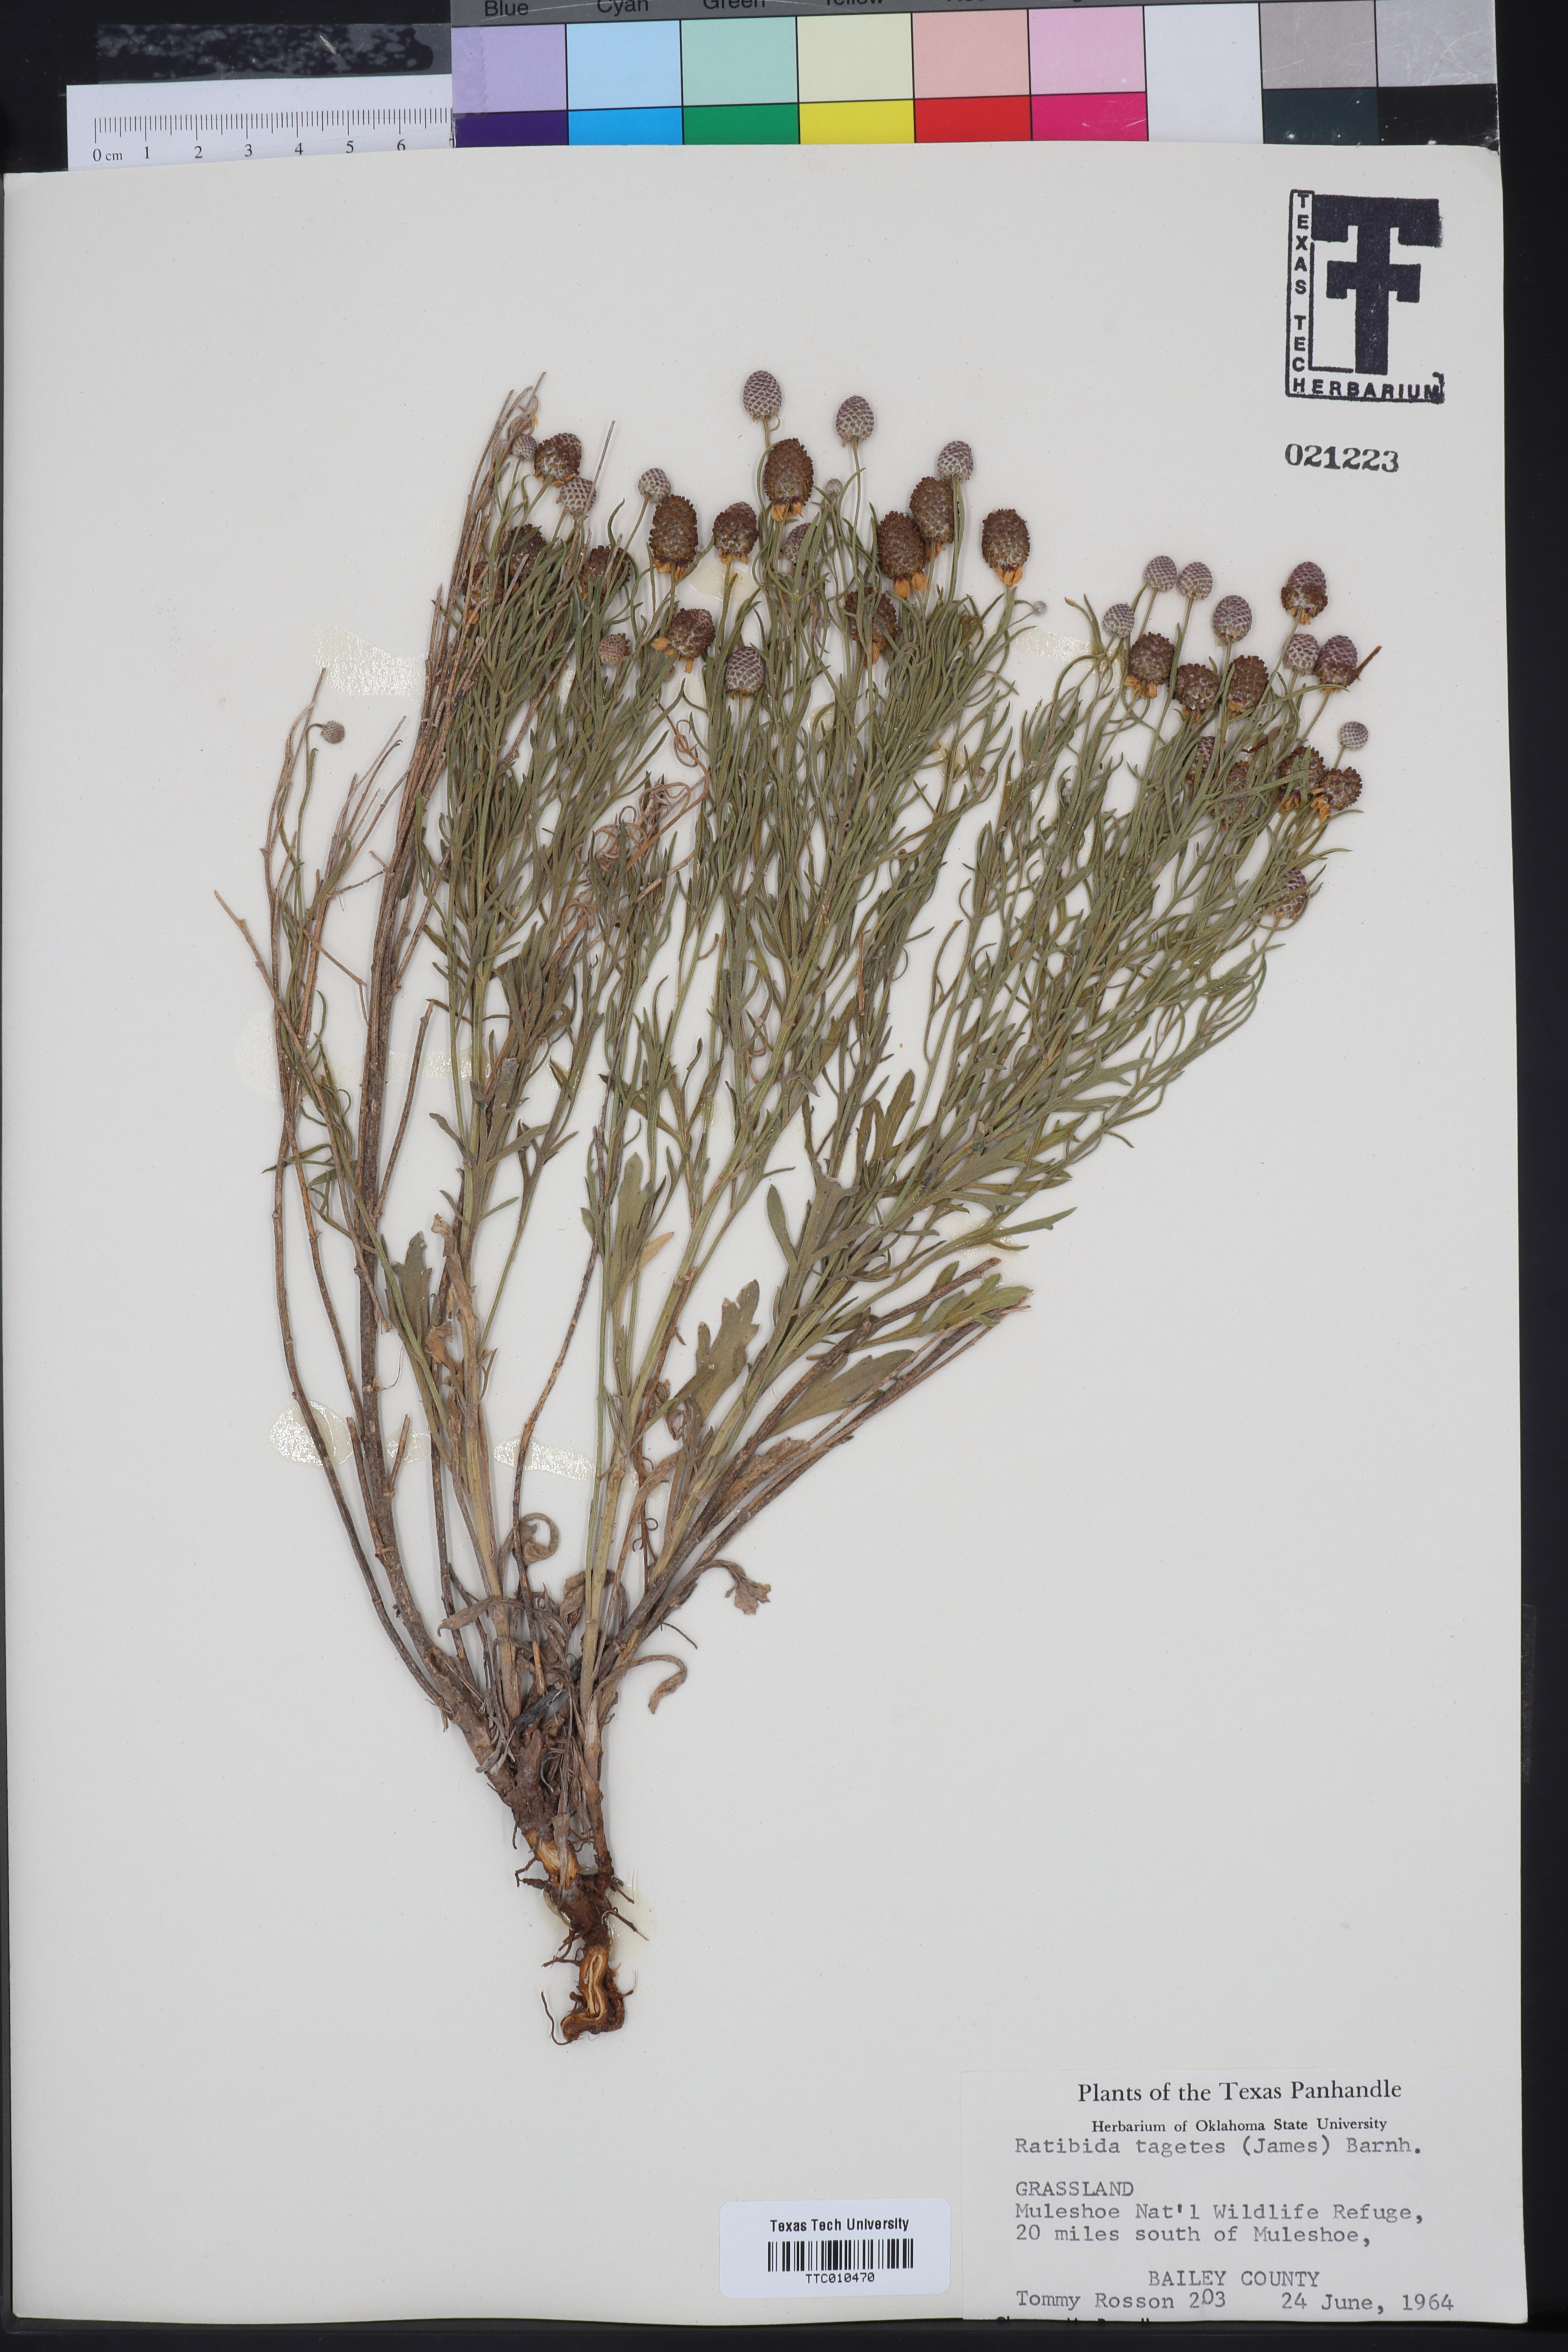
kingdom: Plantae
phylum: Tracheophyta
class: Magnoliopsida
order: Asterales
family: Asteraceae
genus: Ratibida
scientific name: Ratibida tagetes
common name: Green mexican-hat
